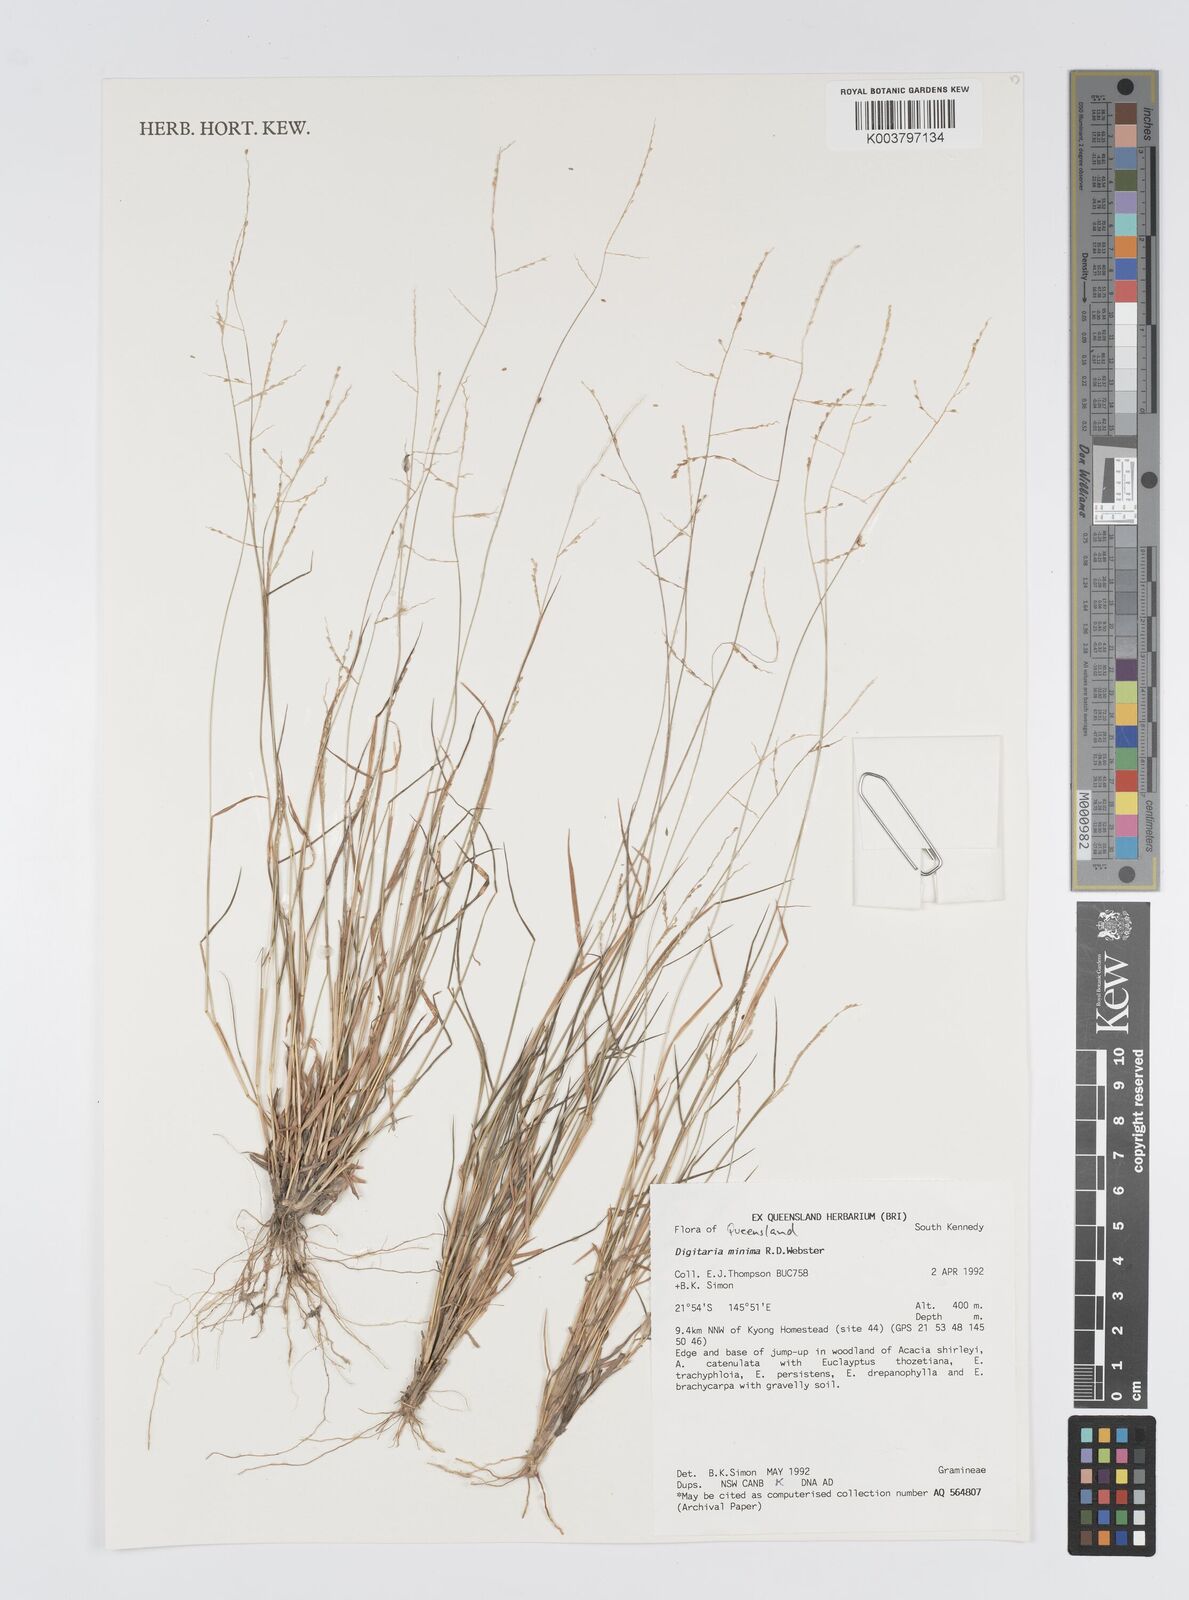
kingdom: Plantae
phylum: Tracheophyta
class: Liliopsida
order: Poales
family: Poaceae
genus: Digitaria
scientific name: Digitaria minima
